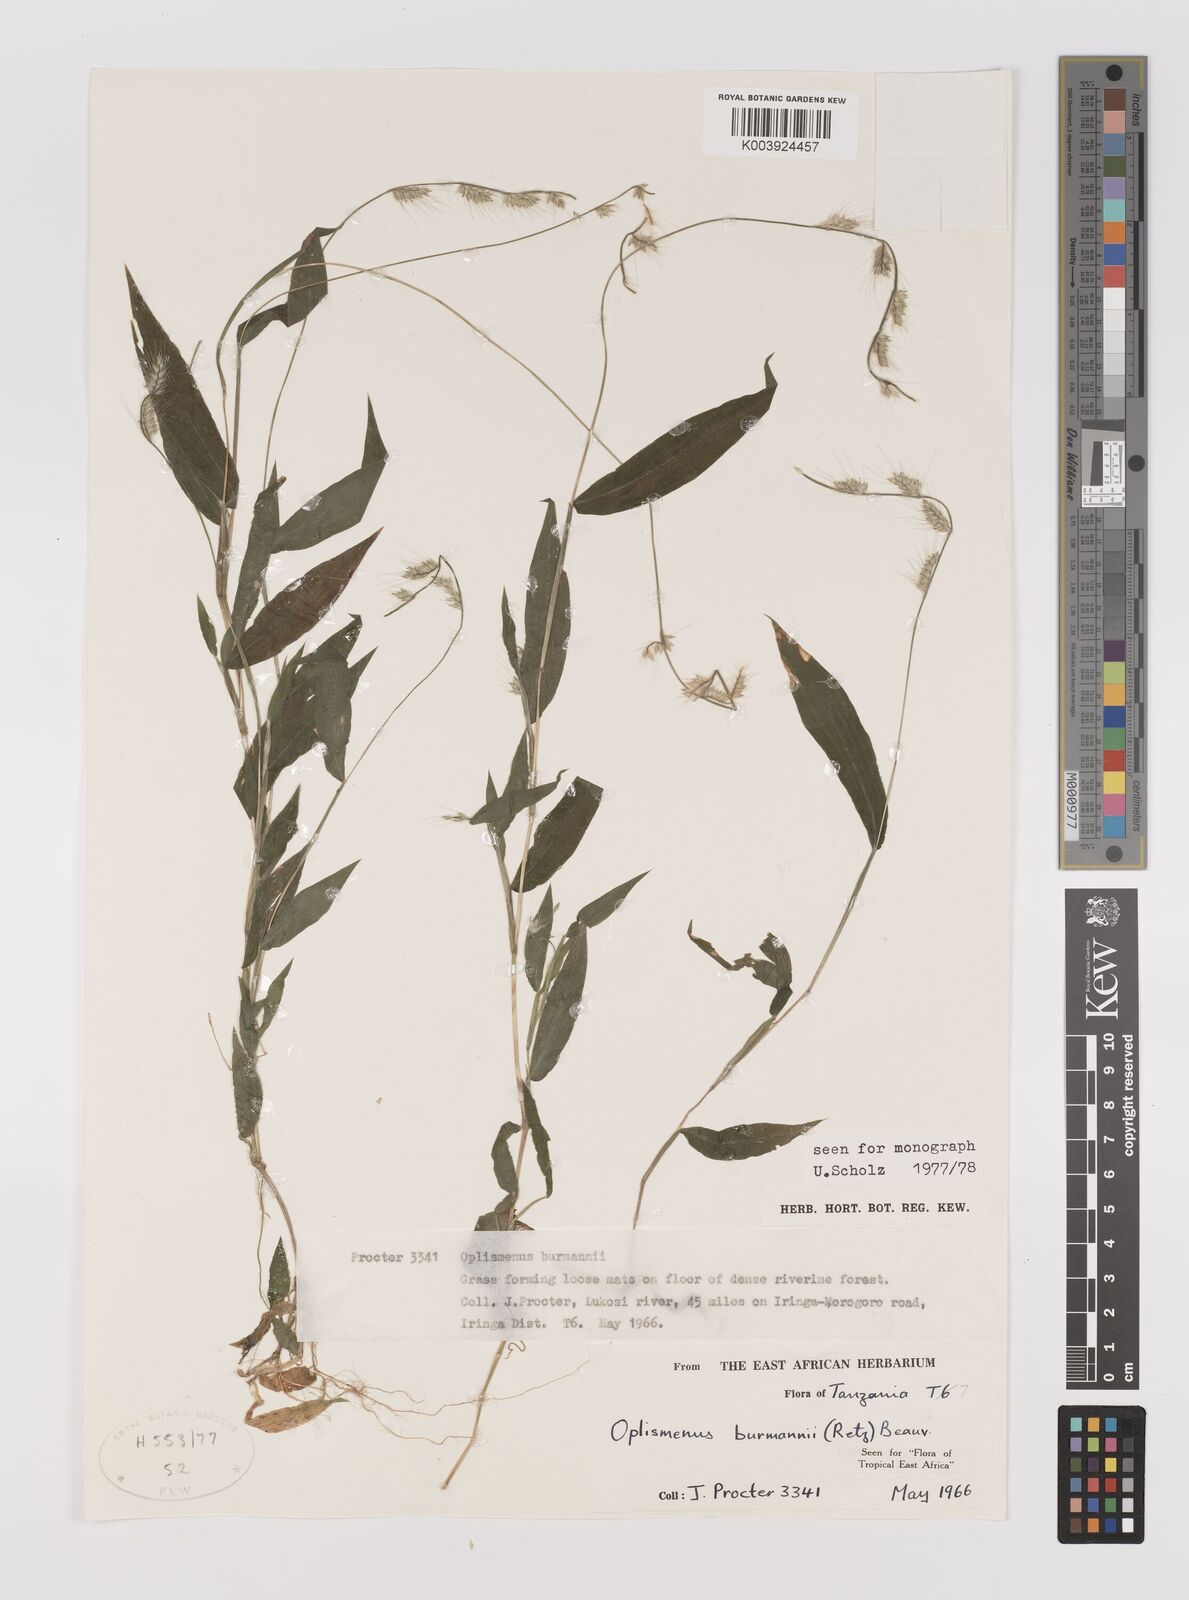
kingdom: Plantae
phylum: Tracheophyta
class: Liliopsida
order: Poales
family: Poaceae
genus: Oplismenus
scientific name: Oplismenus burmanni
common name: Burmann's basketgrass
